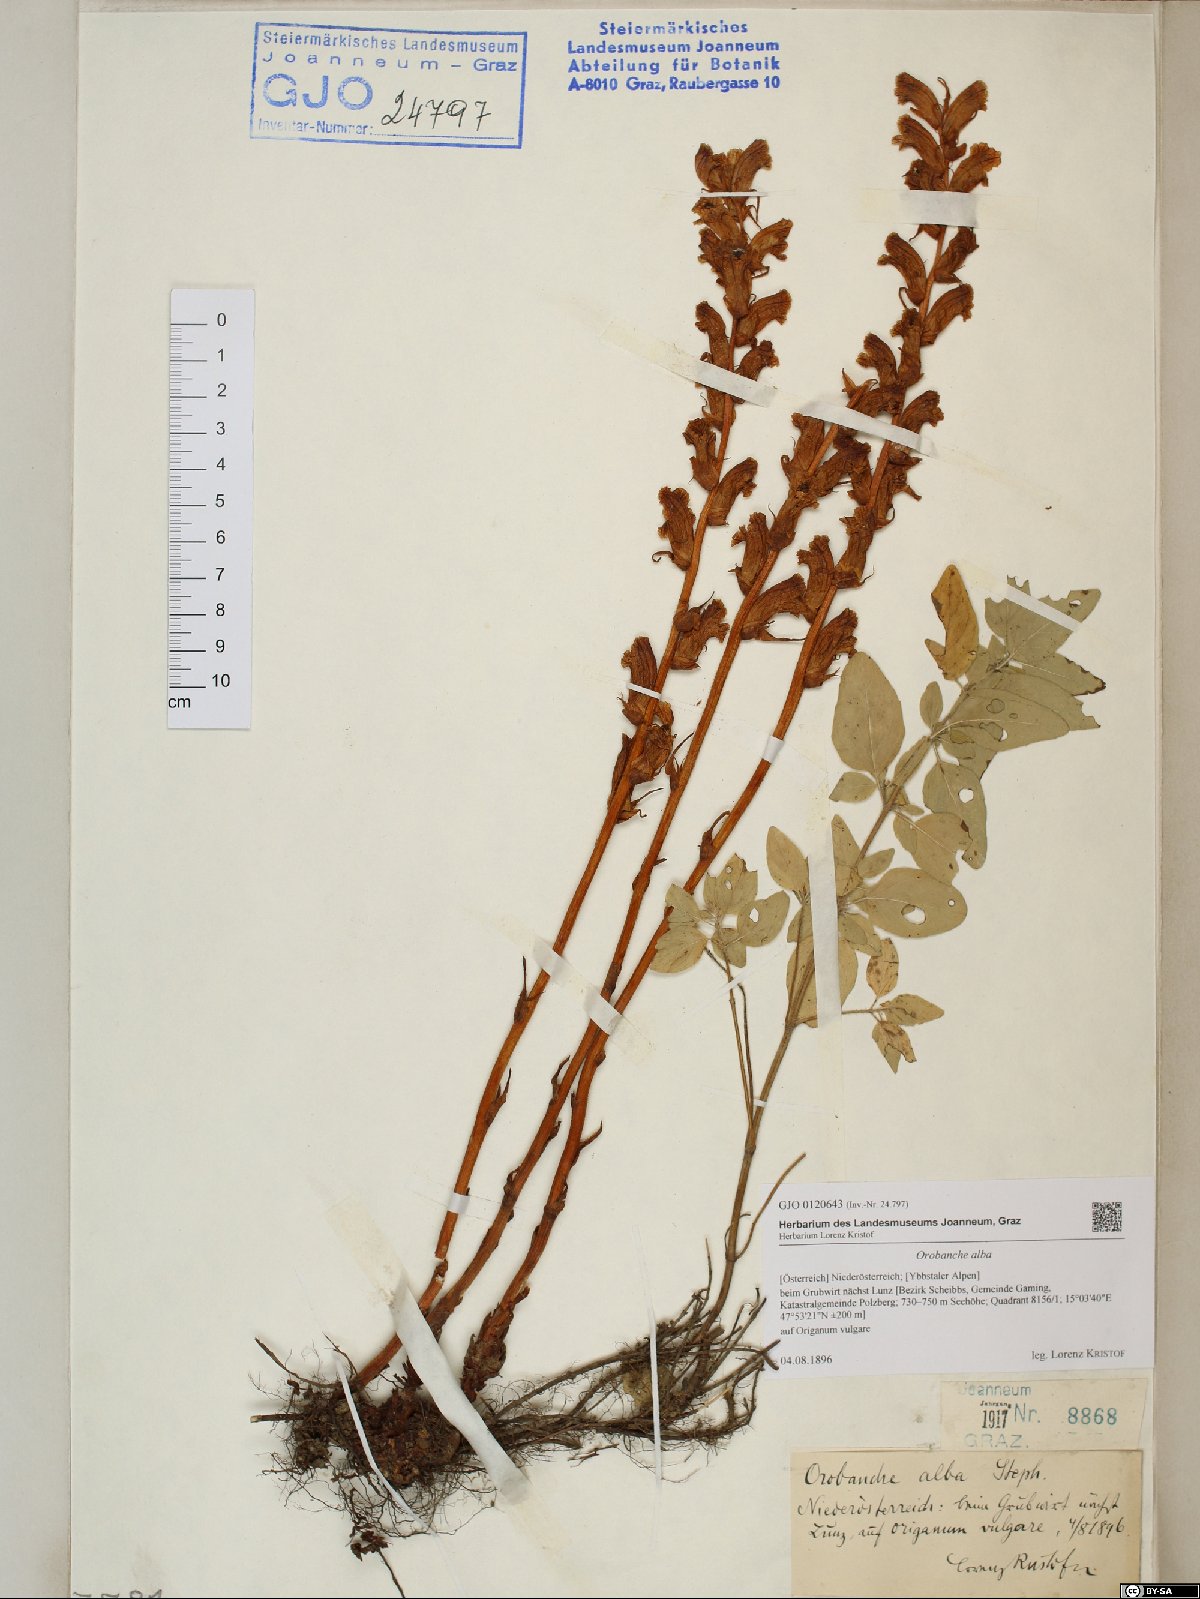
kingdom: Plantae
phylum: Tracheophyta
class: Magnoliopsida
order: Lamiales
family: Orobanchaceae
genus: Orobanche
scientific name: Orobanche alba
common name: Thyme broomrape
